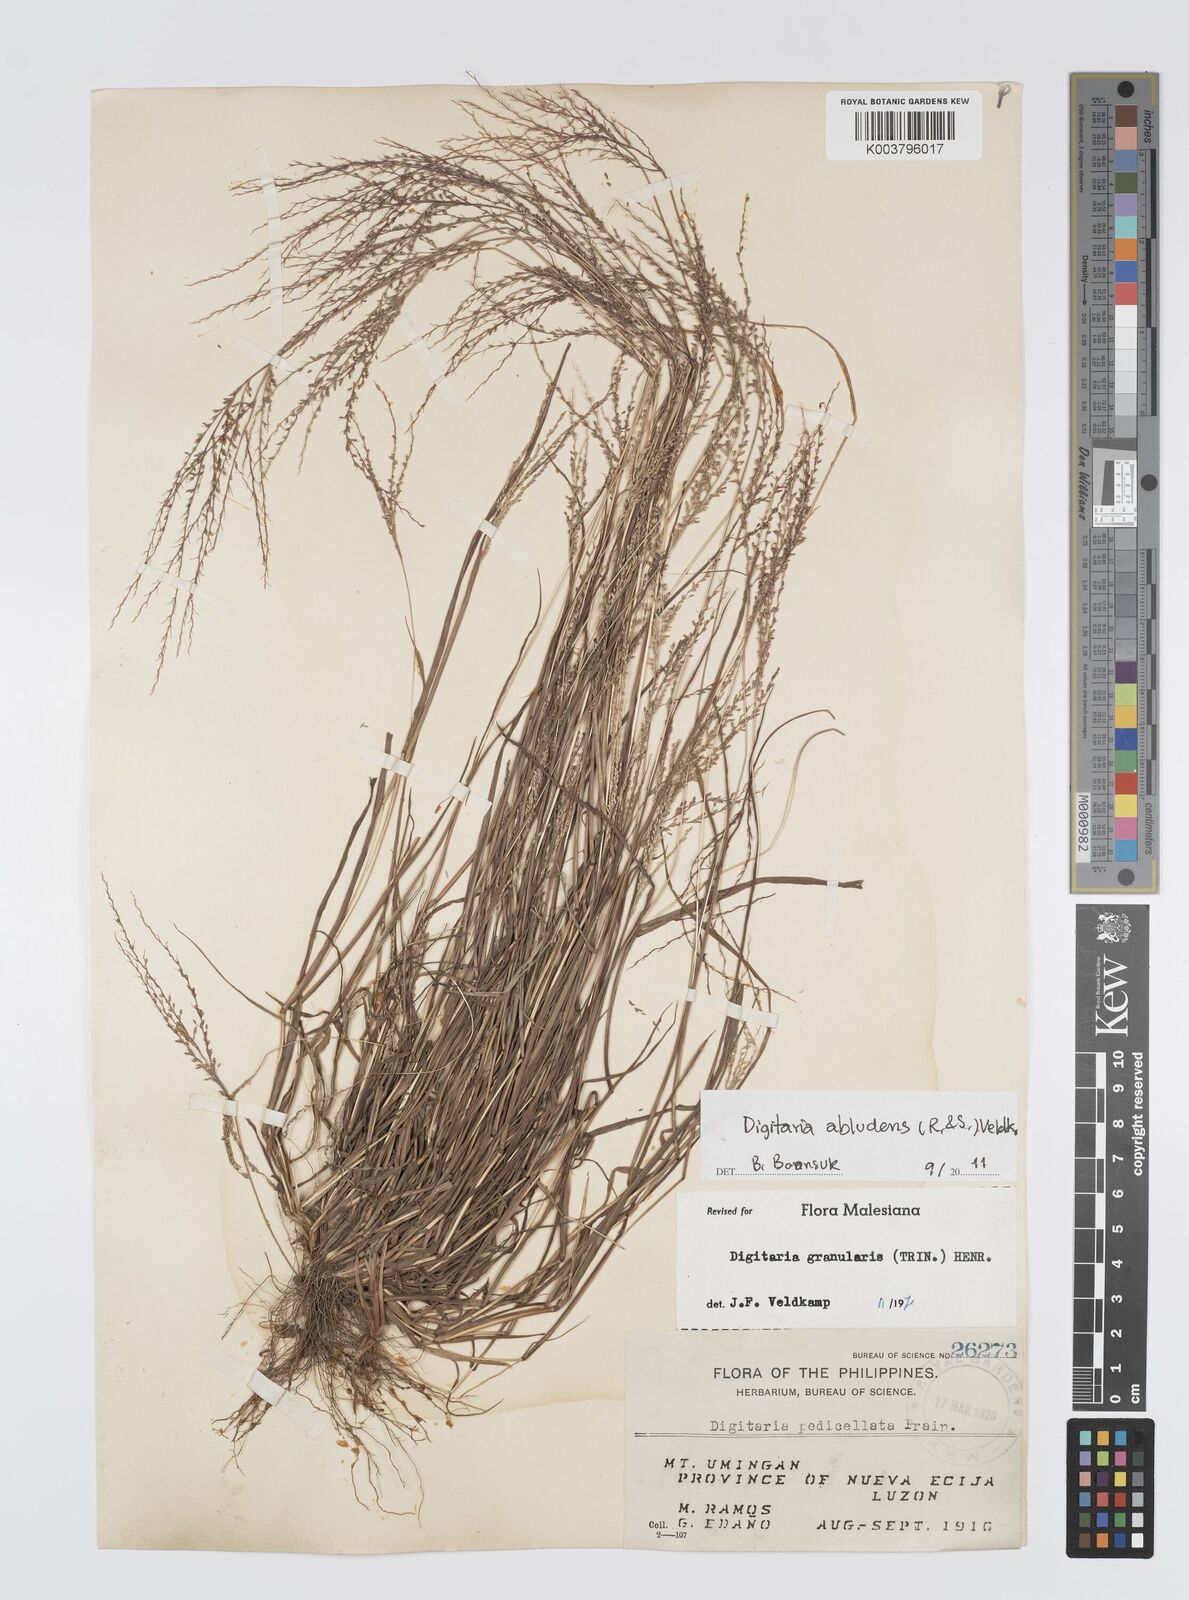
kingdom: Plantae
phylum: Tracheophyta
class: Liliopsida
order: Poales
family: Poaceae
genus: Digitaria
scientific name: Digitaria abludens
